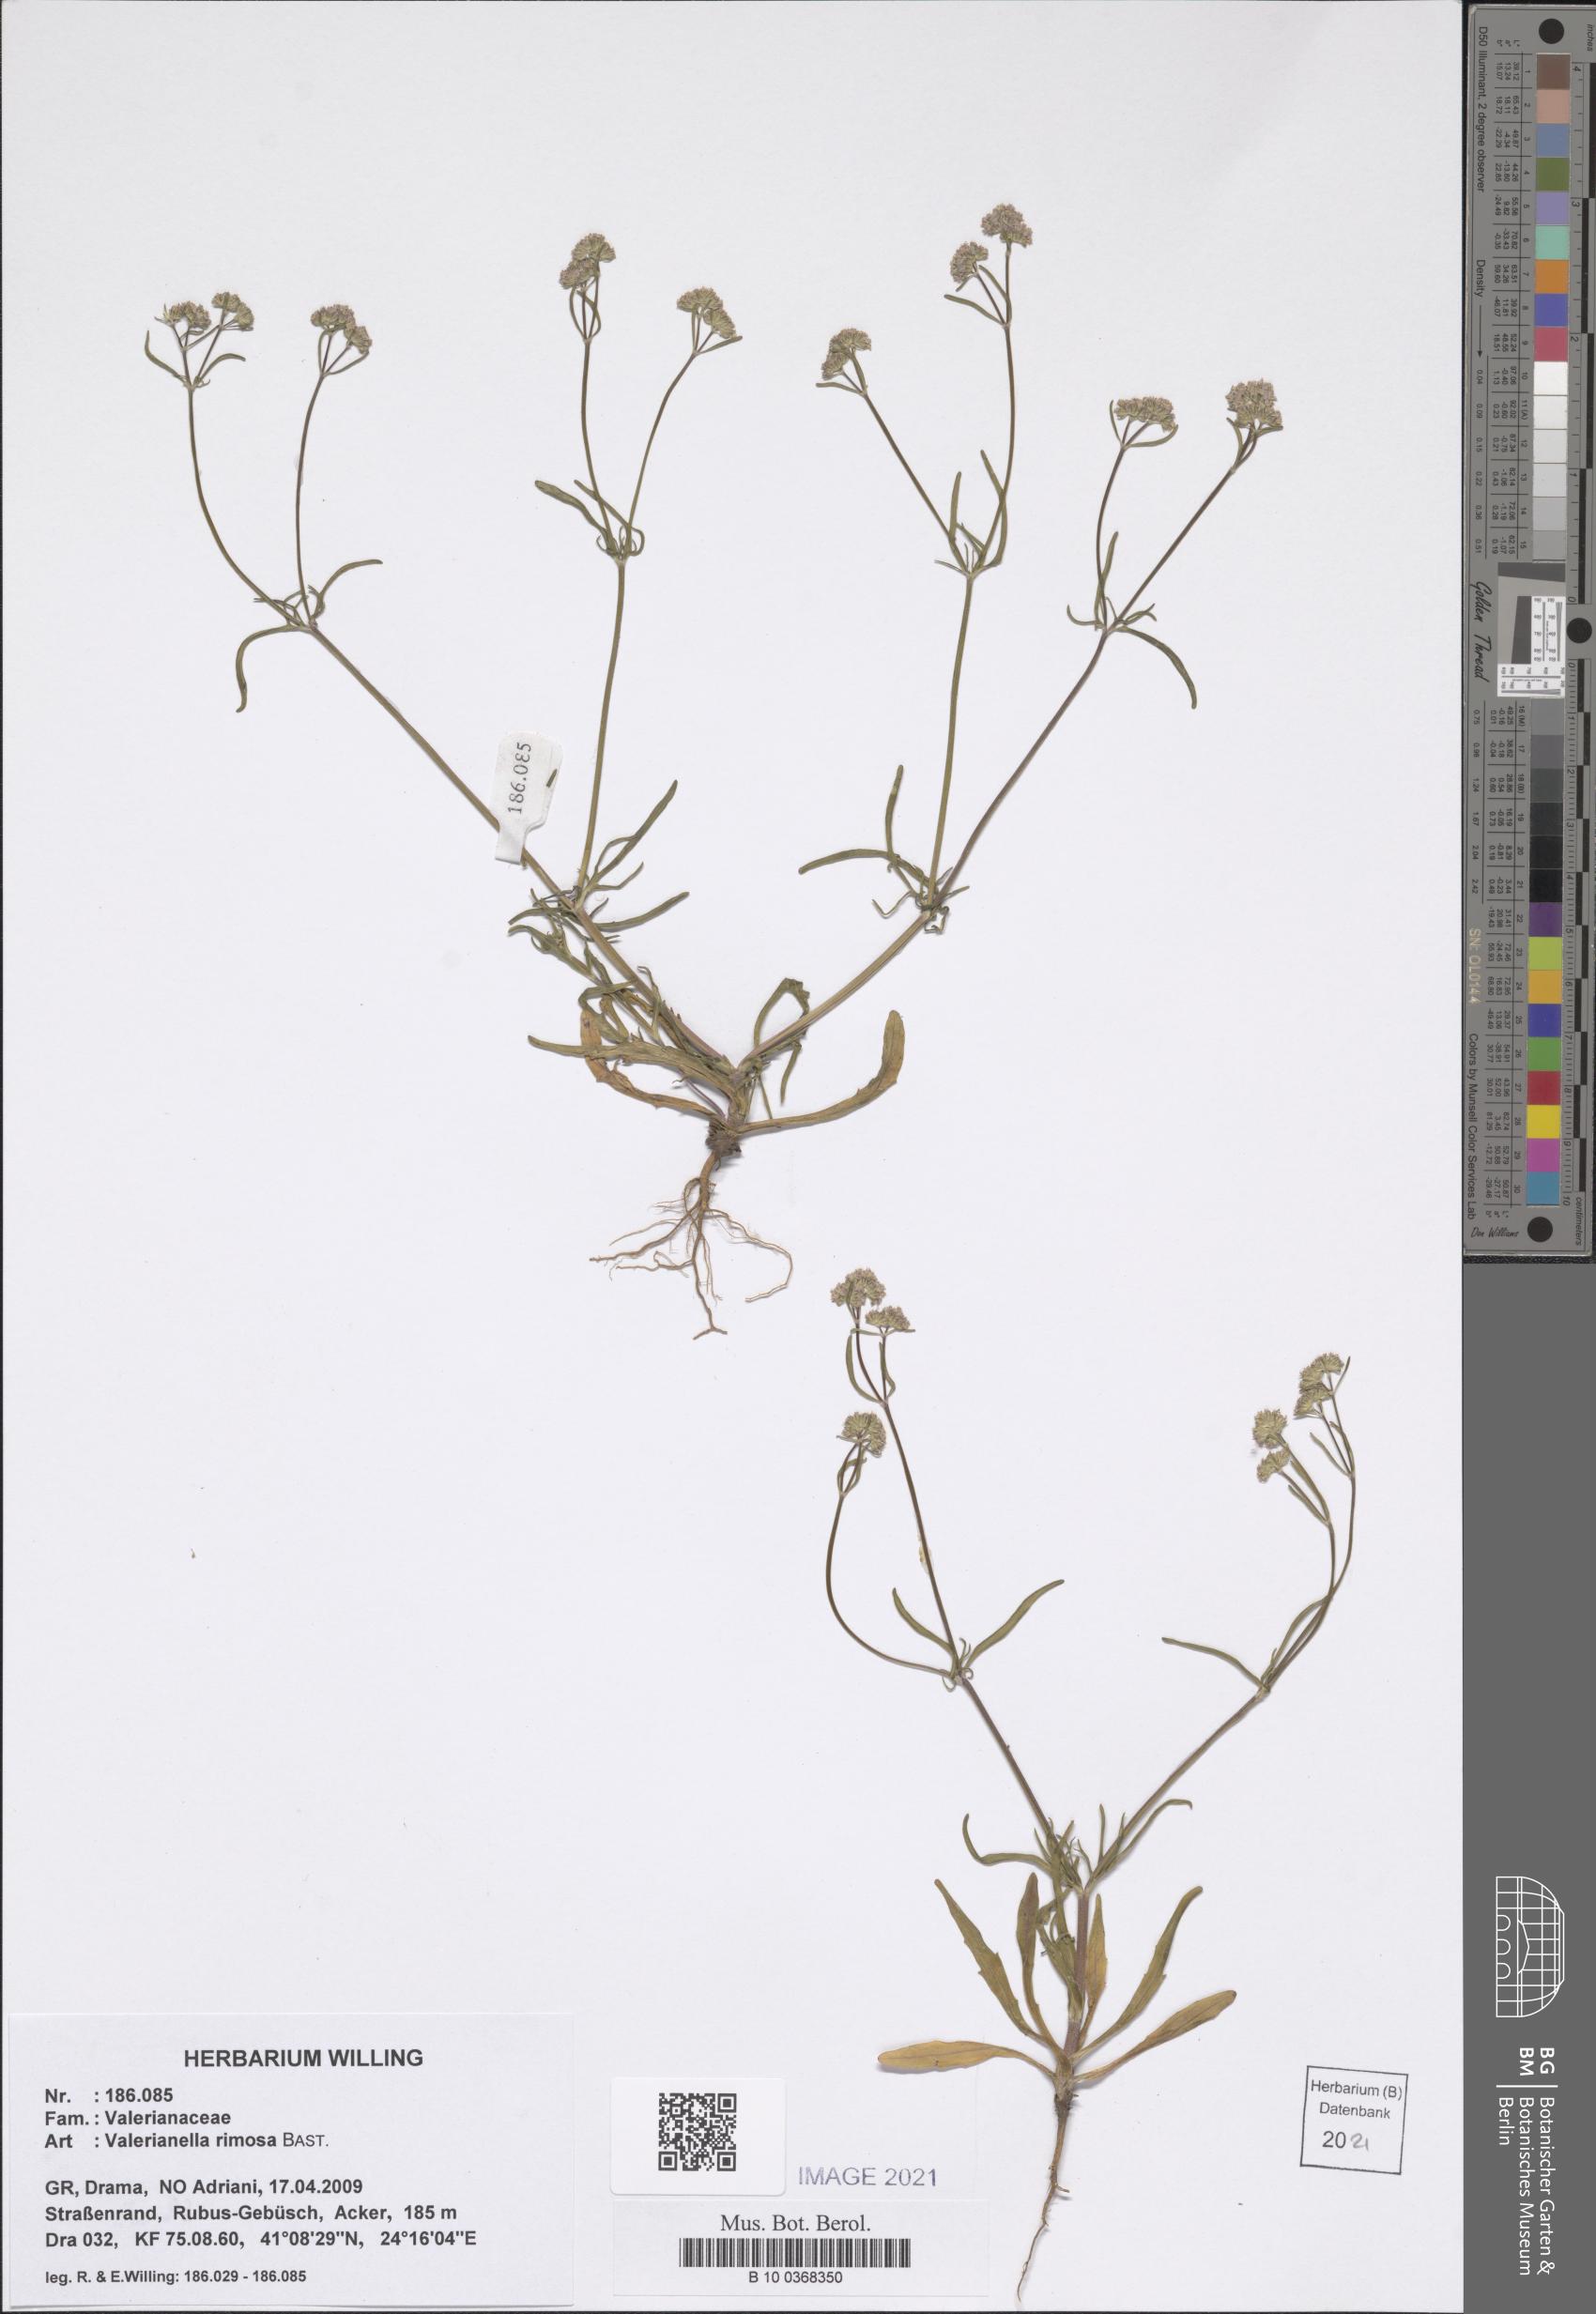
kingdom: Plantae
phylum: Tracheophyta
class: Magnoliopsida
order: Dipsacales
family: Caprifoliaceae
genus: Valerianella
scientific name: Valerianella rimosa
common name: Broad-fruited cornsalad
